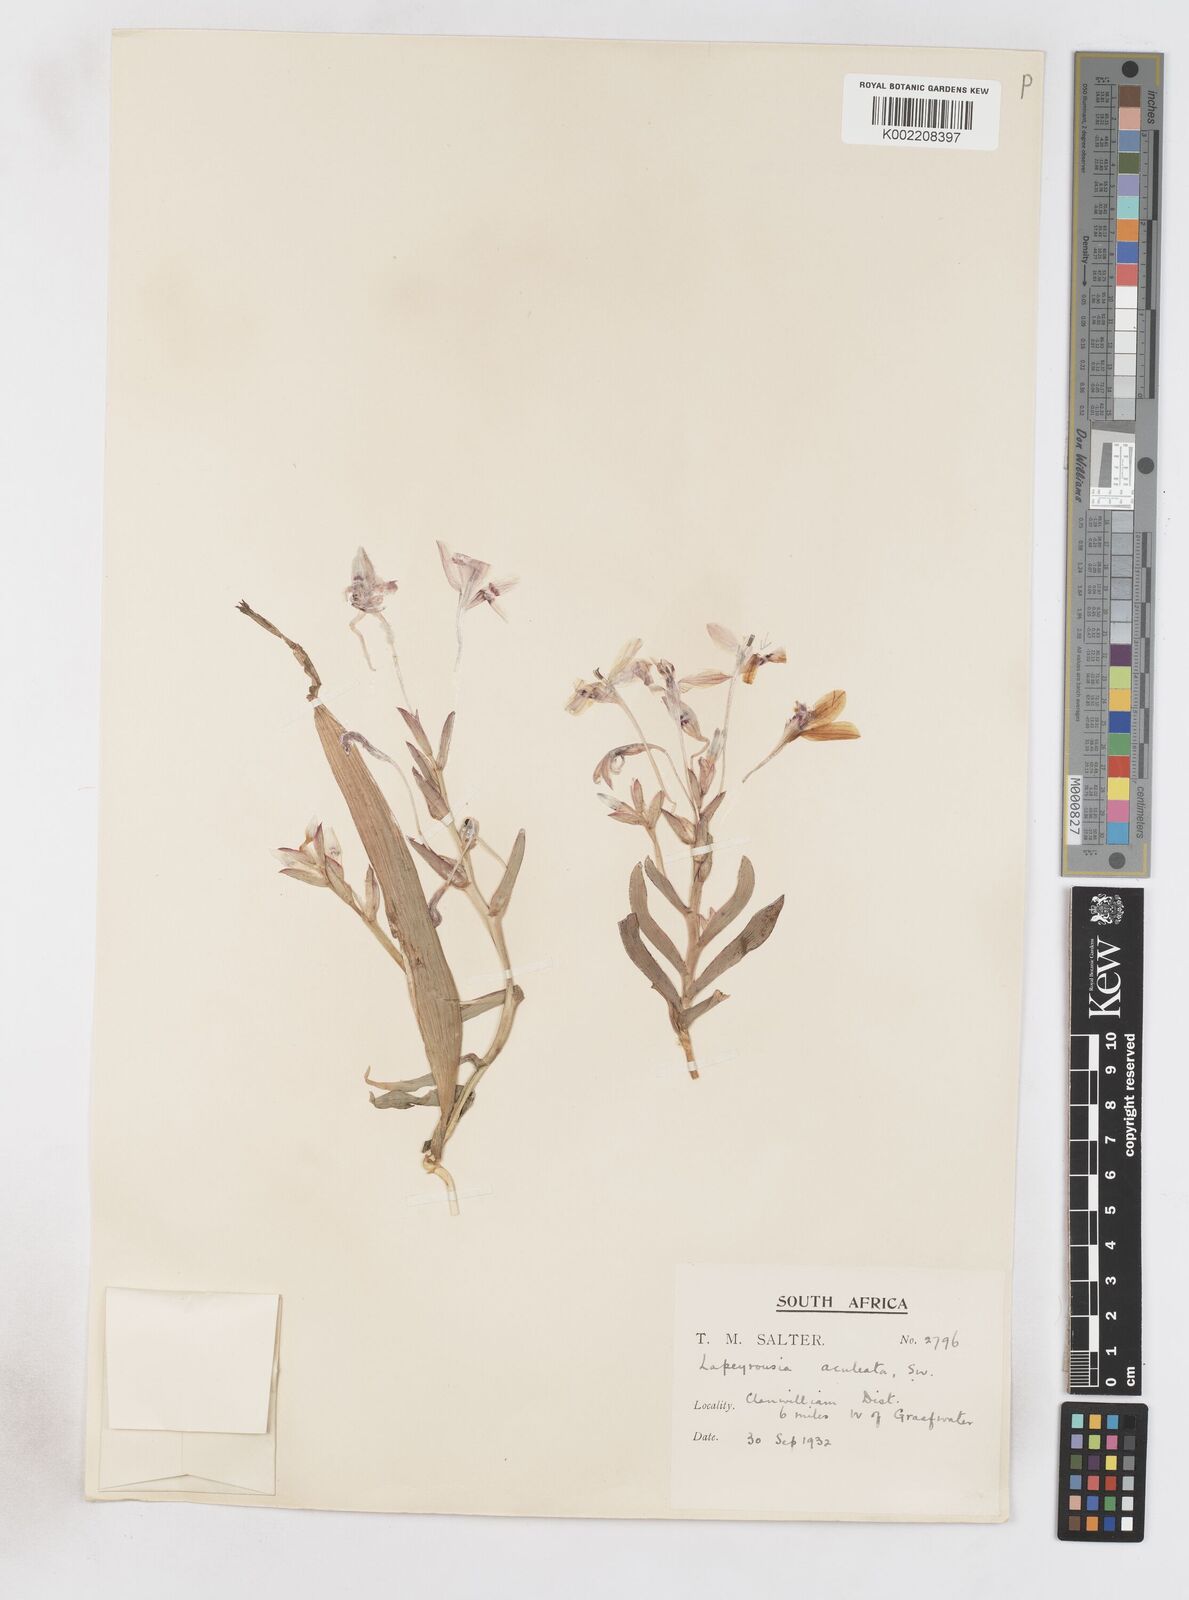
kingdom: Plantae
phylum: Tracheophyta
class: Liliopsida
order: Asparagales
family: Iridaceae
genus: Lapeirousia
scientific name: Lapeirousia fabricii
